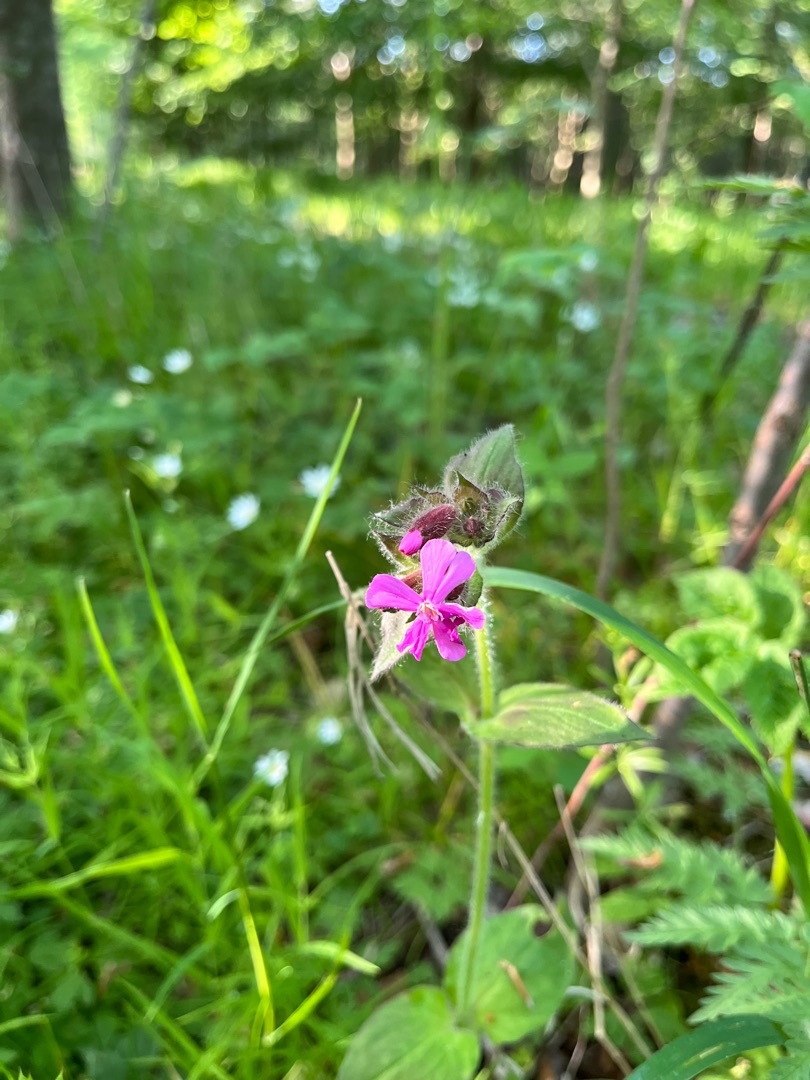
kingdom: Plantae
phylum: Tracheophyta
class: Magnoliopsida
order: Caryophyllales
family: Caryophyllaceae
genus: Silene
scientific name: Silene dioica
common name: Dagpragtstjerne
